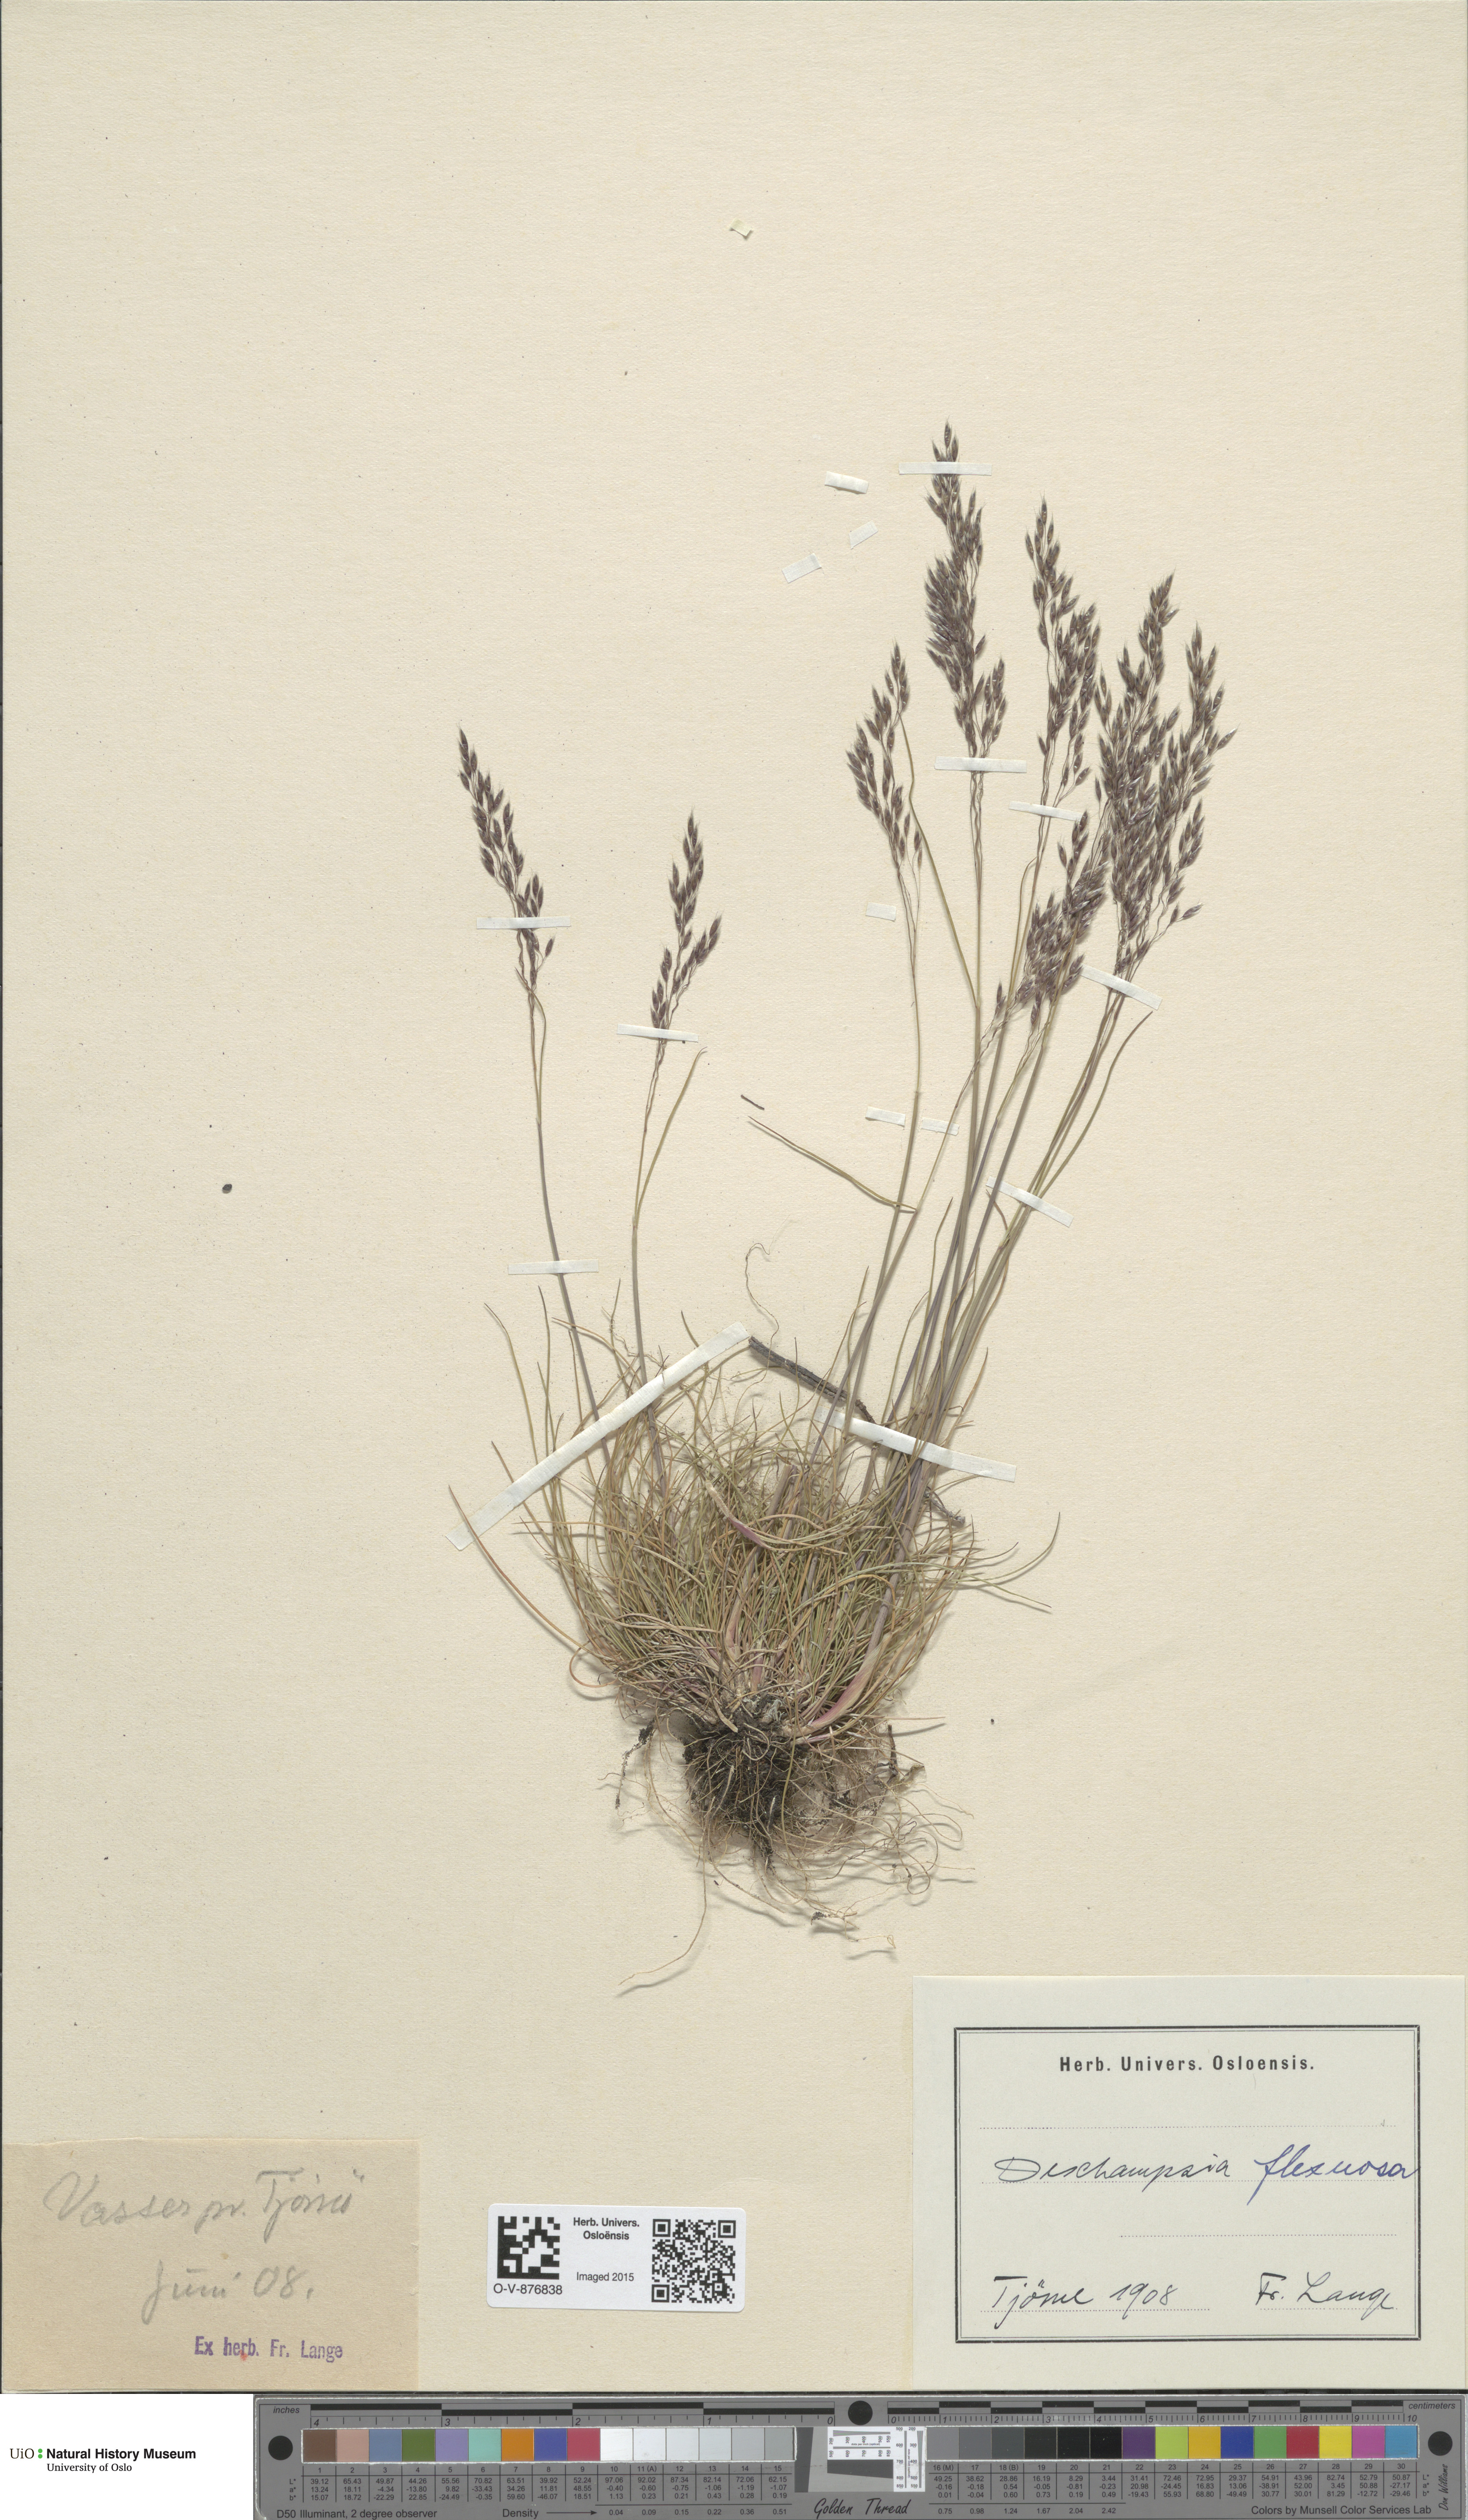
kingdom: Plantae
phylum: Tracheophyta
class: Liliopsida
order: Poales
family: Poaceae
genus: Avenella
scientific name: Avenella flexuosa
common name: Wavy hairgrass
